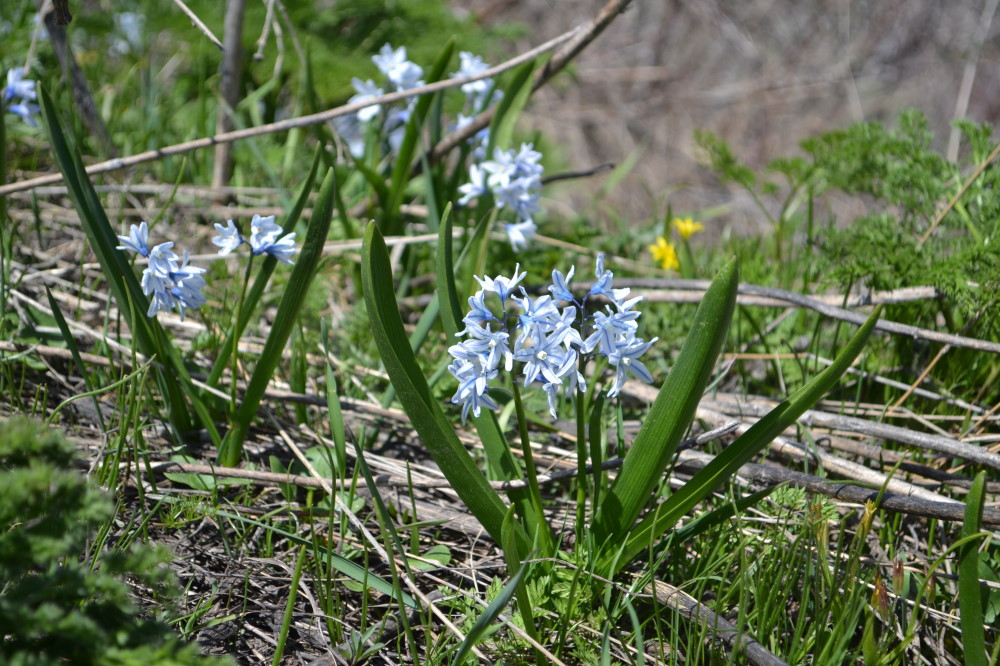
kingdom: Plantae
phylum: Tracheophyta
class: Liliopsida
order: Asparagales
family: Asparagaceae
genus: Puschkinia
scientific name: Puschkinia scilloides
